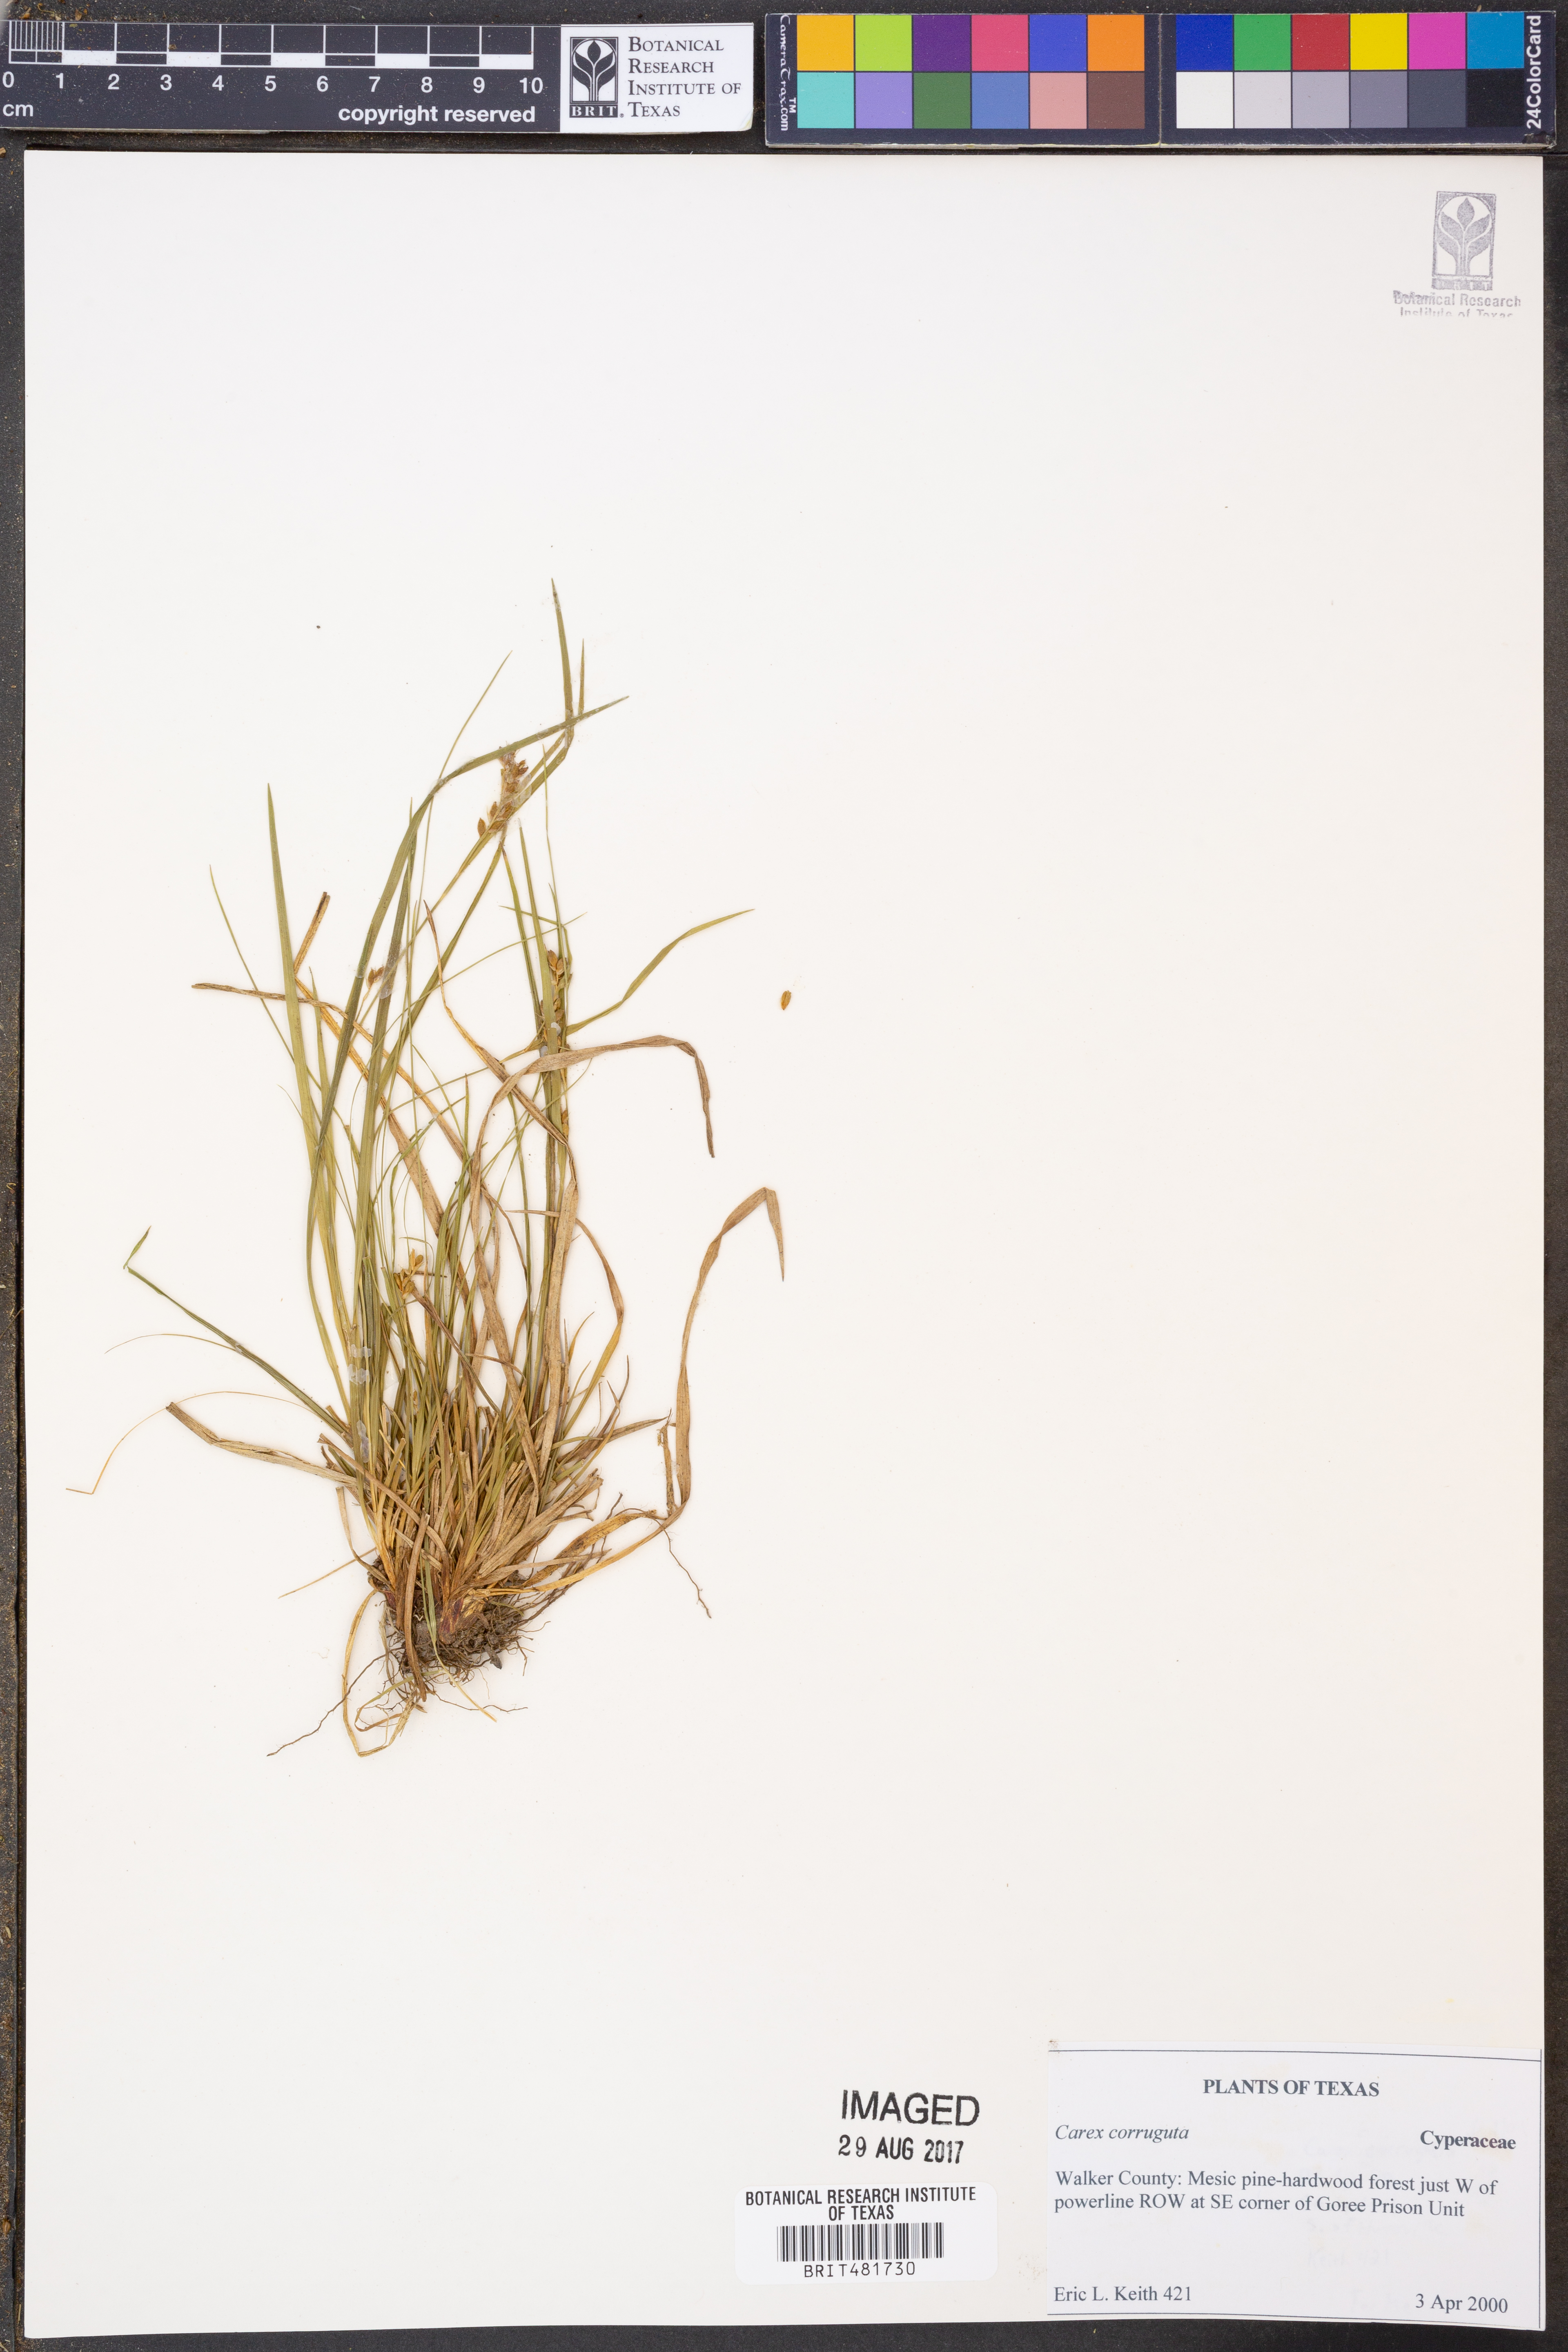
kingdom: Plantae
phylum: Tracheophyta
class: Liliopsida
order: Poales
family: Cyperaceae
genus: Carex
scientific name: Carex corrugata
